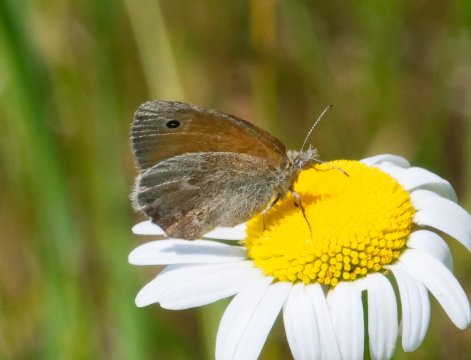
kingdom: Animalia
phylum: Arthropoda
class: Insecta
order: Lepidoptera
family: Nymphalidae
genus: Coenonympha
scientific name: Coenonympha california
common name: California Ringlet
